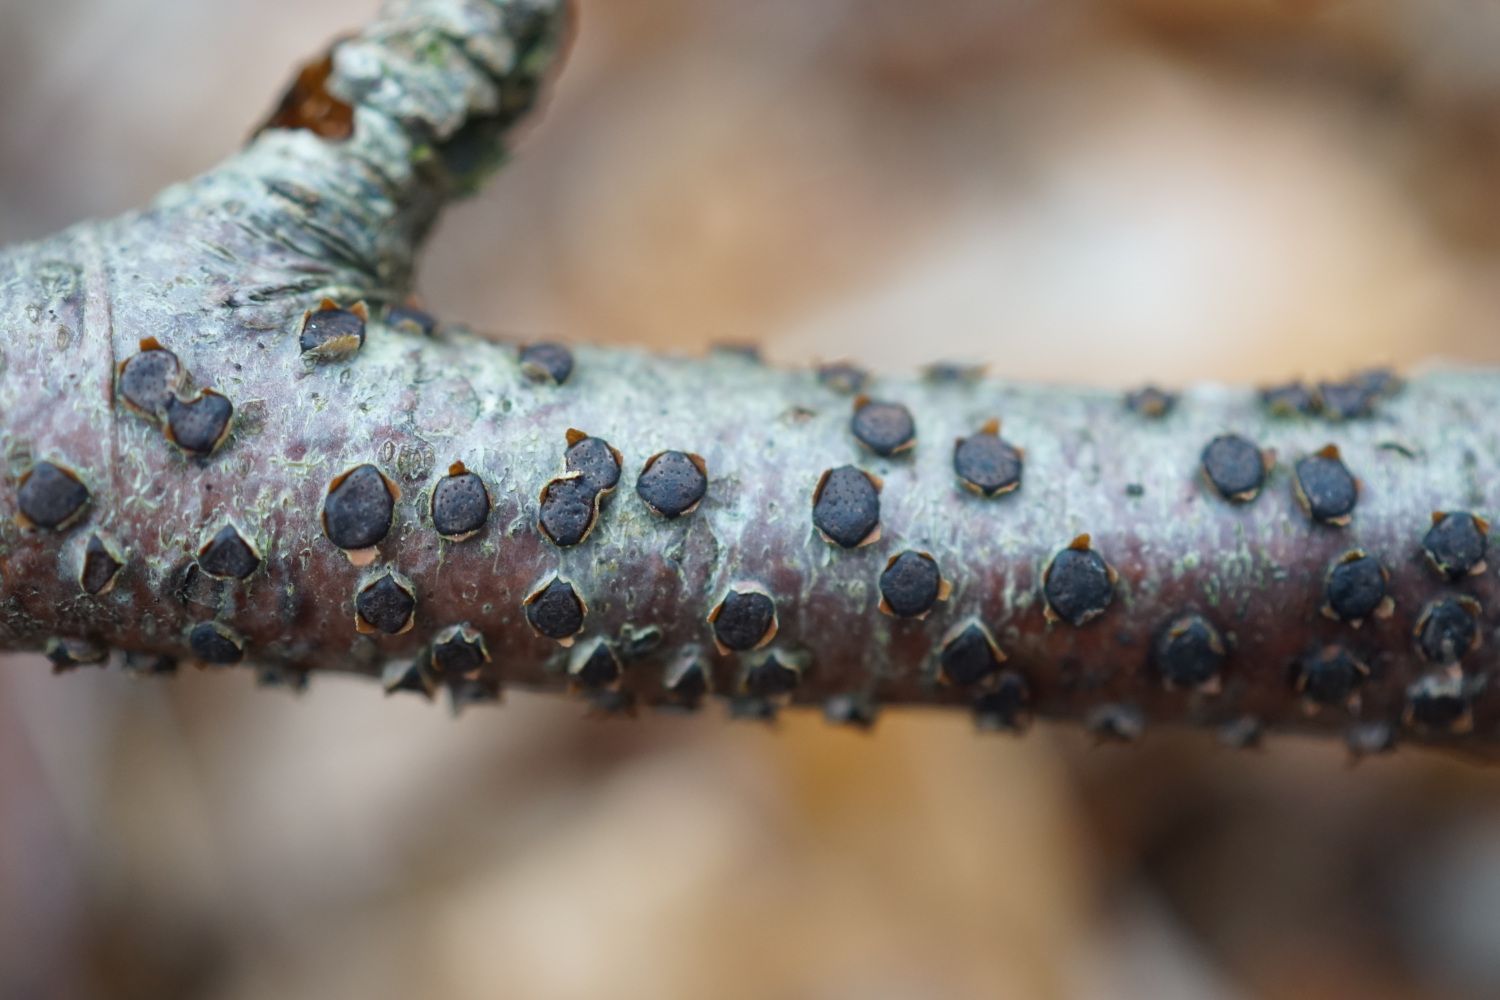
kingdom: Fungi
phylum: Ascomycota
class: Sordariomycetes
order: Xylariales
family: Diatrypaceae
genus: Diatrype
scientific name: Diatrype disciformis
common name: kant-kulskorpe
